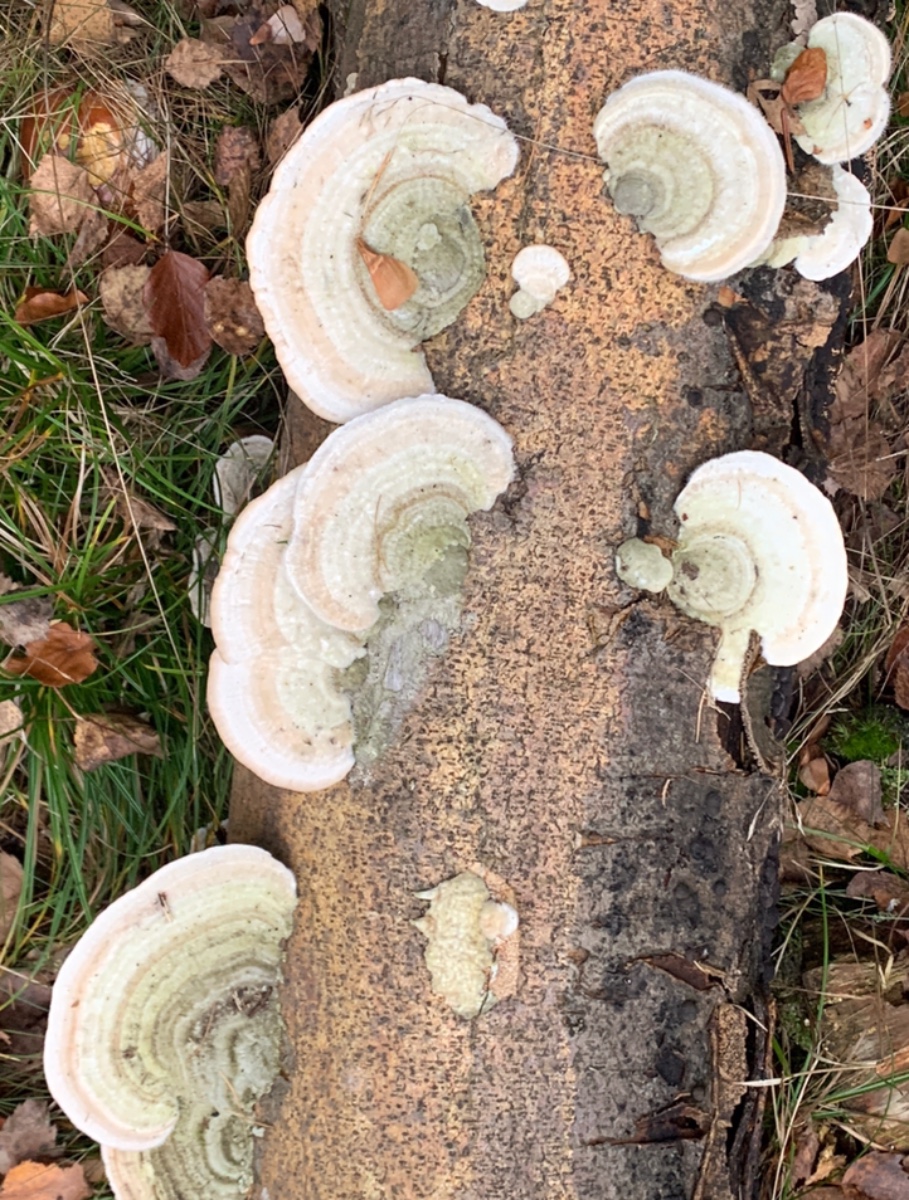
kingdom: Fungi
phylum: Basidiomycota
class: Agaricomycetes
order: Polyporales
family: Polyporaceae
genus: Trametes
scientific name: Trametes hirsuta
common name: håret læderporesvamp
